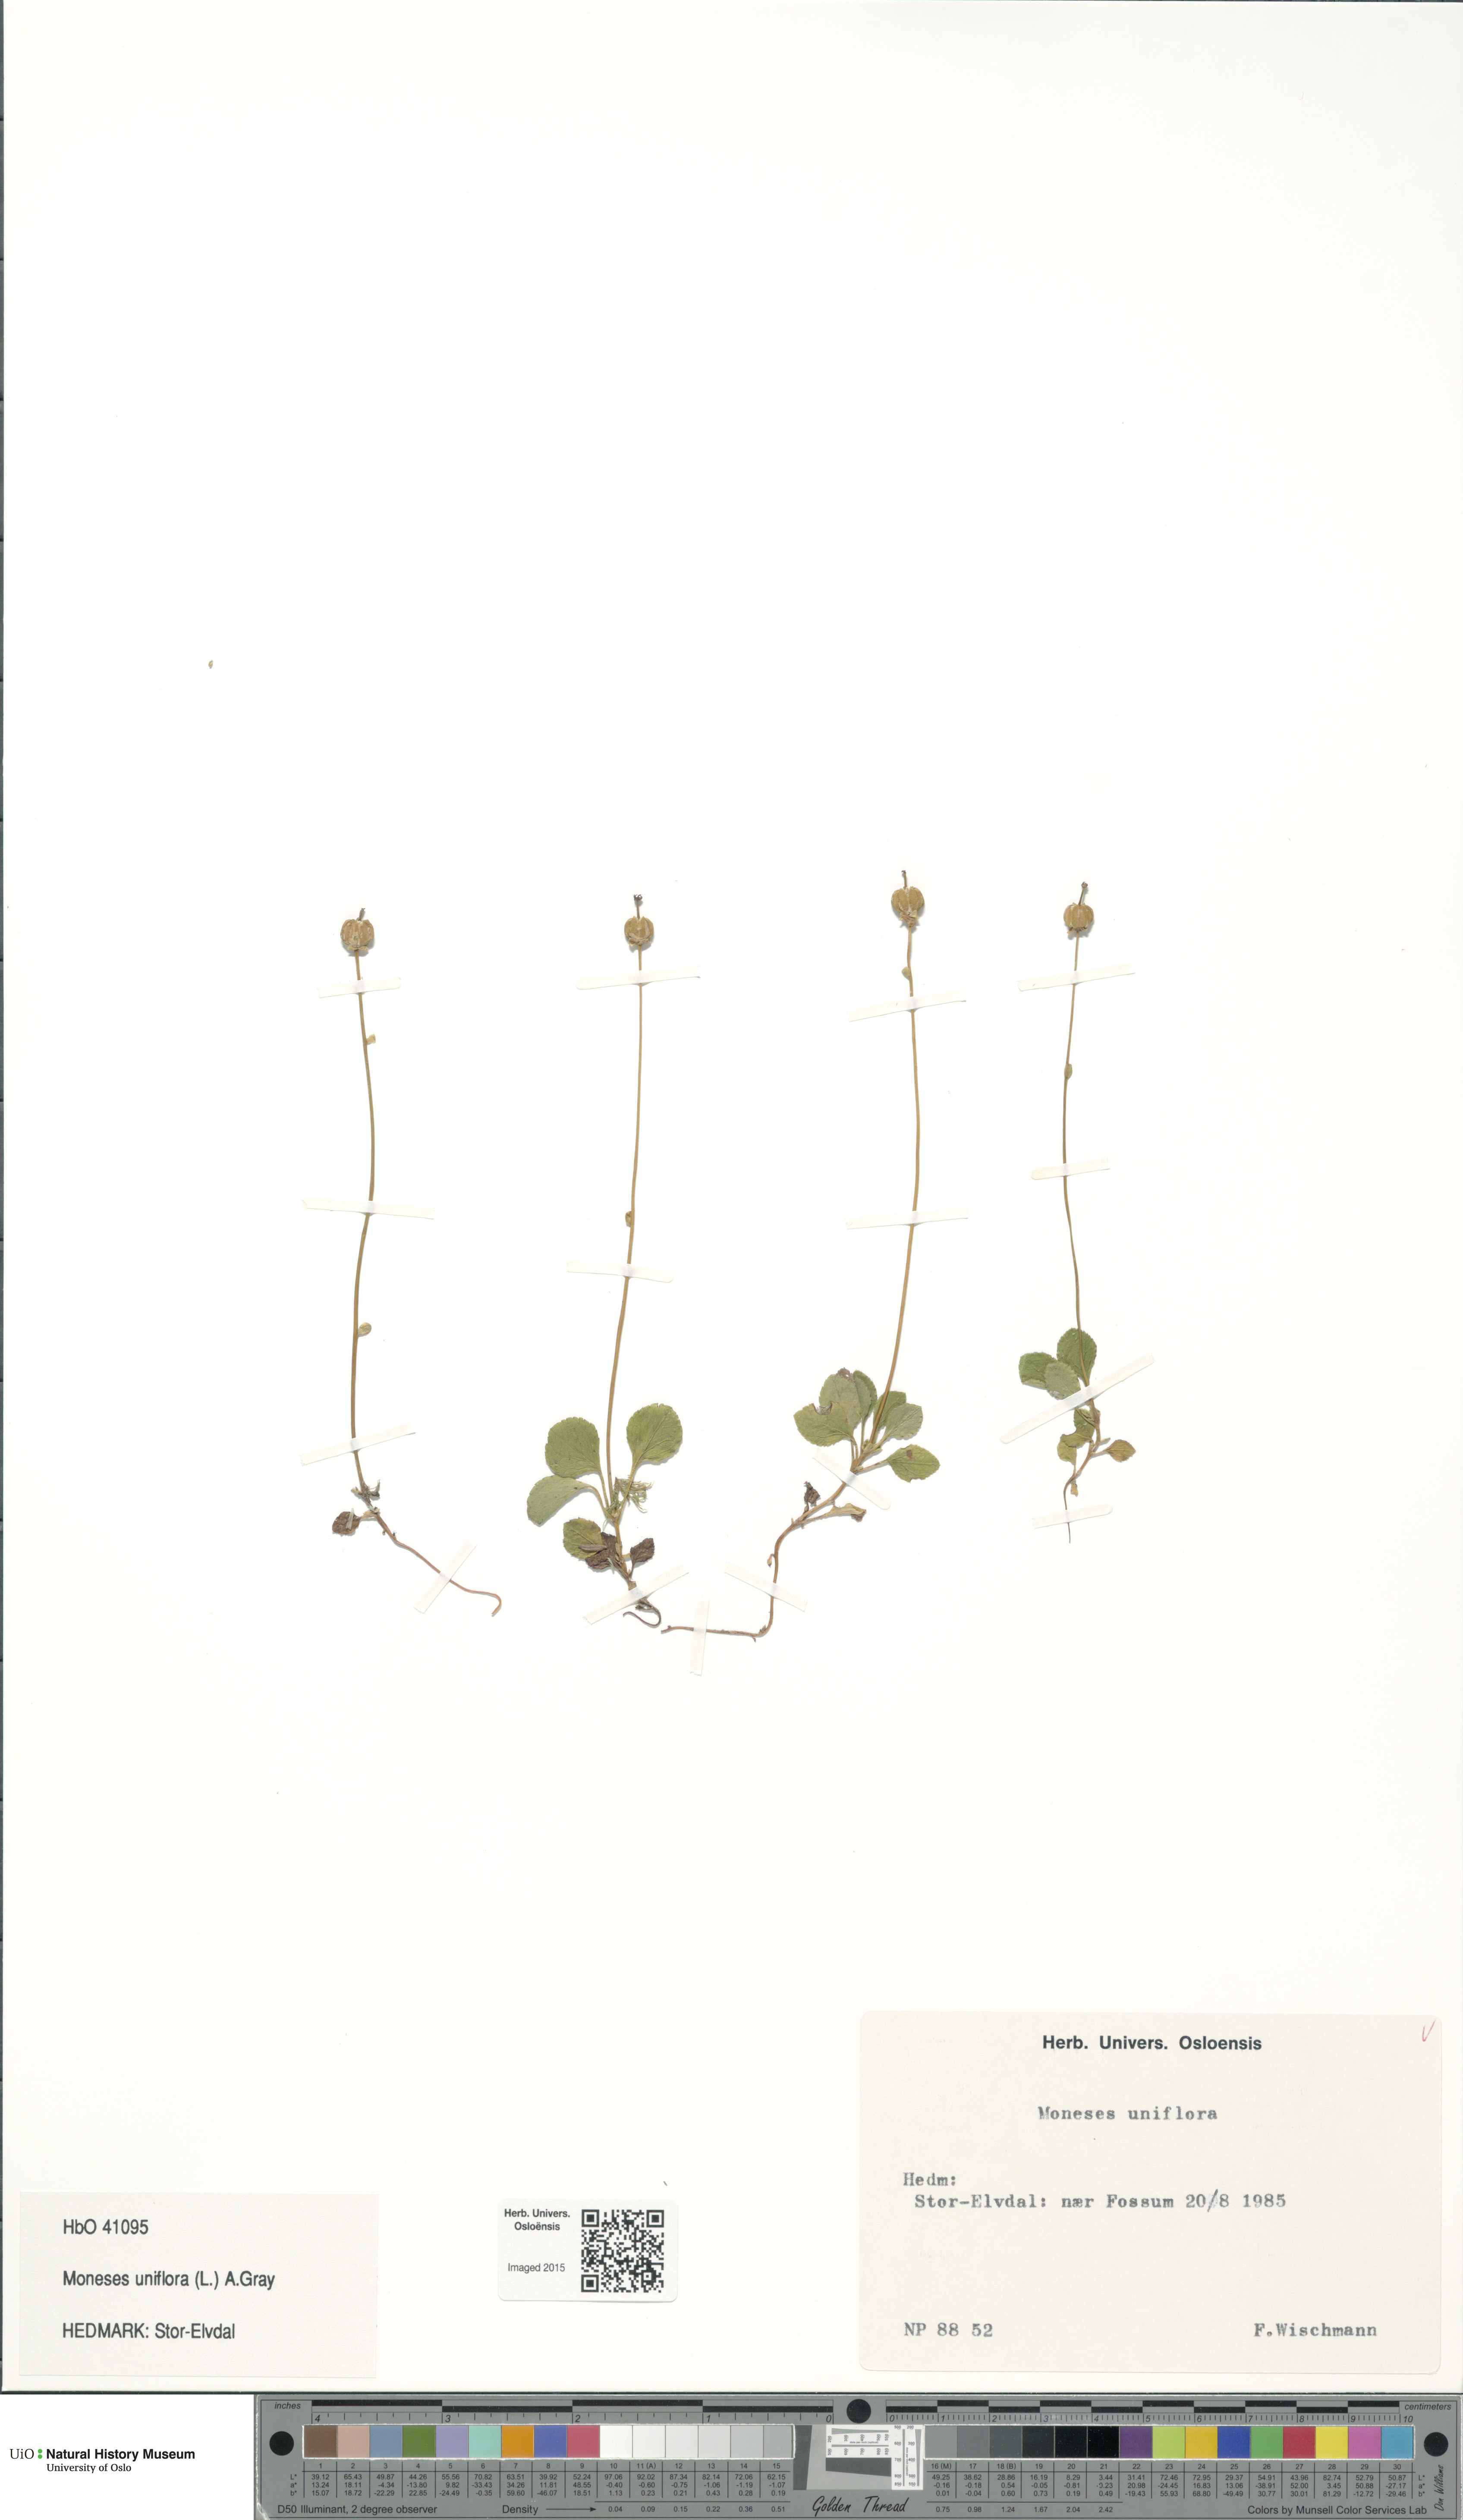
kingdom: Plantae
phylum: Tracheophyta
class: Magnoliopsida
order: Ericales
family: Ericaceae
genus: Moneses
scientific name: Moneses uniflora
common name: One-flowered wintergreen
